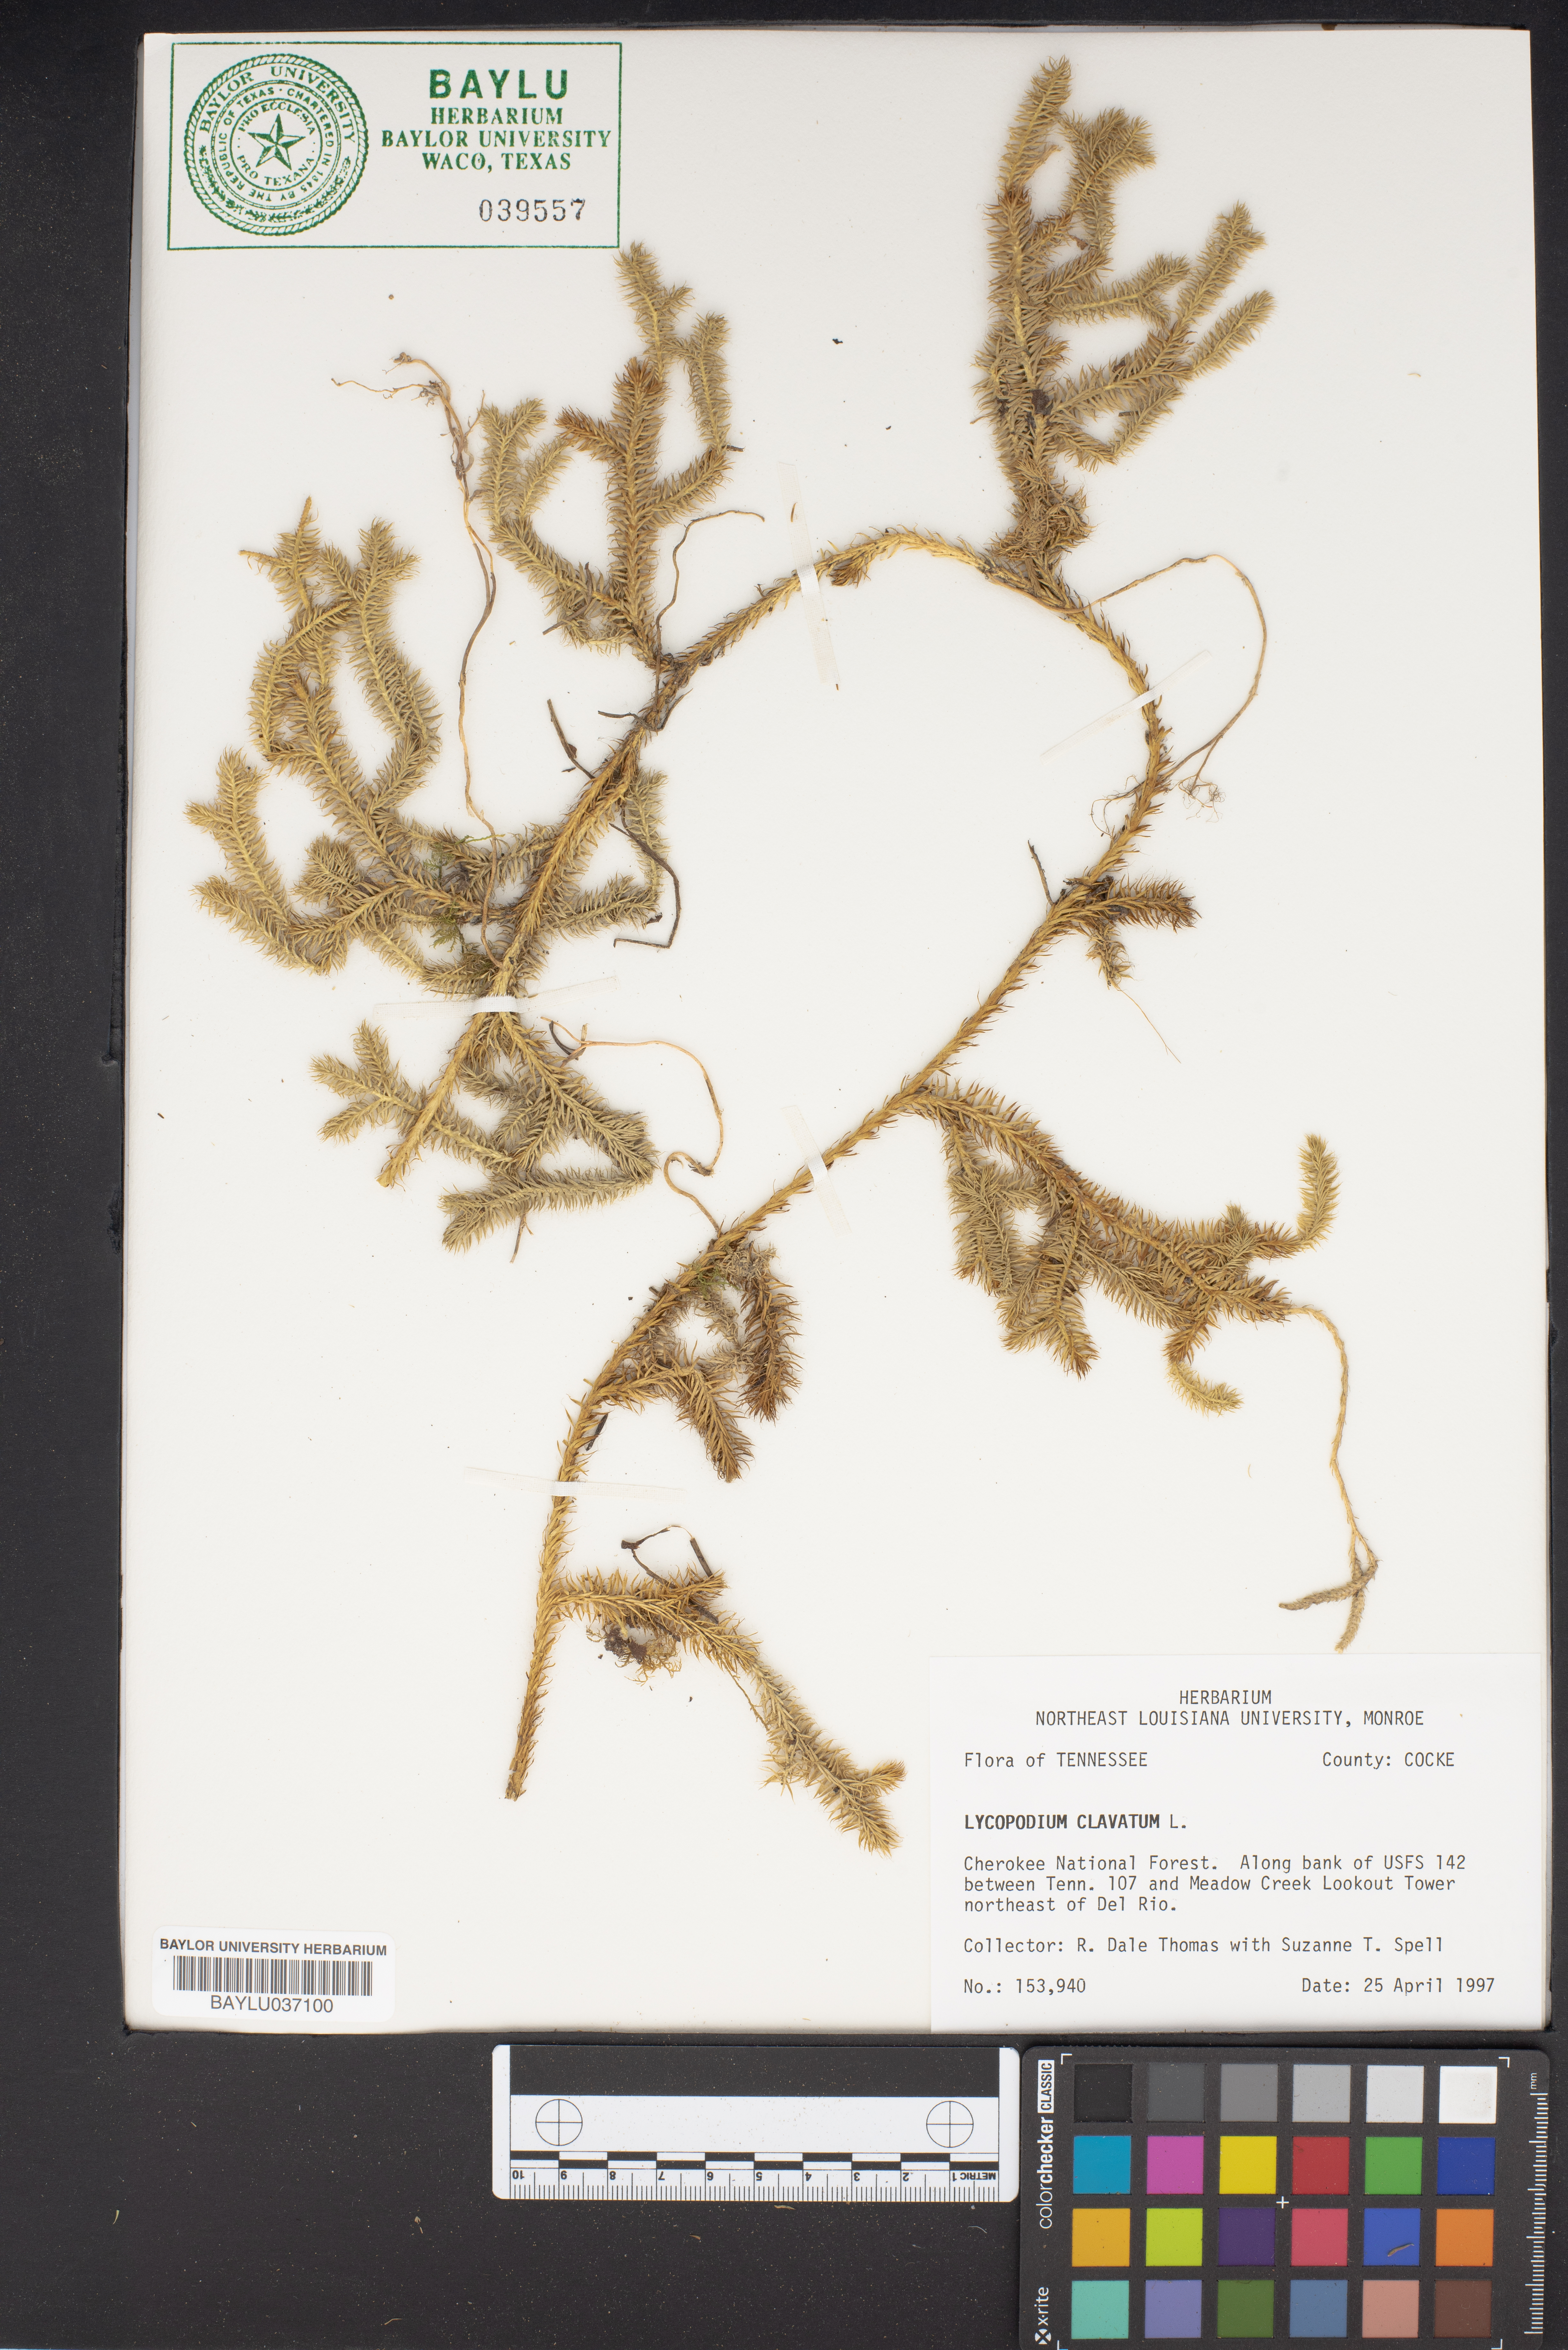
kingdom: Plantae
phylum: Tracheophyta
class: Lycopodiopsida
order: Lycopodiales
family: Lycopodiaceae
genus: Lycopodium
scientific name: Lycopodium clavatum
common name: Stag's-horn clubmoss
